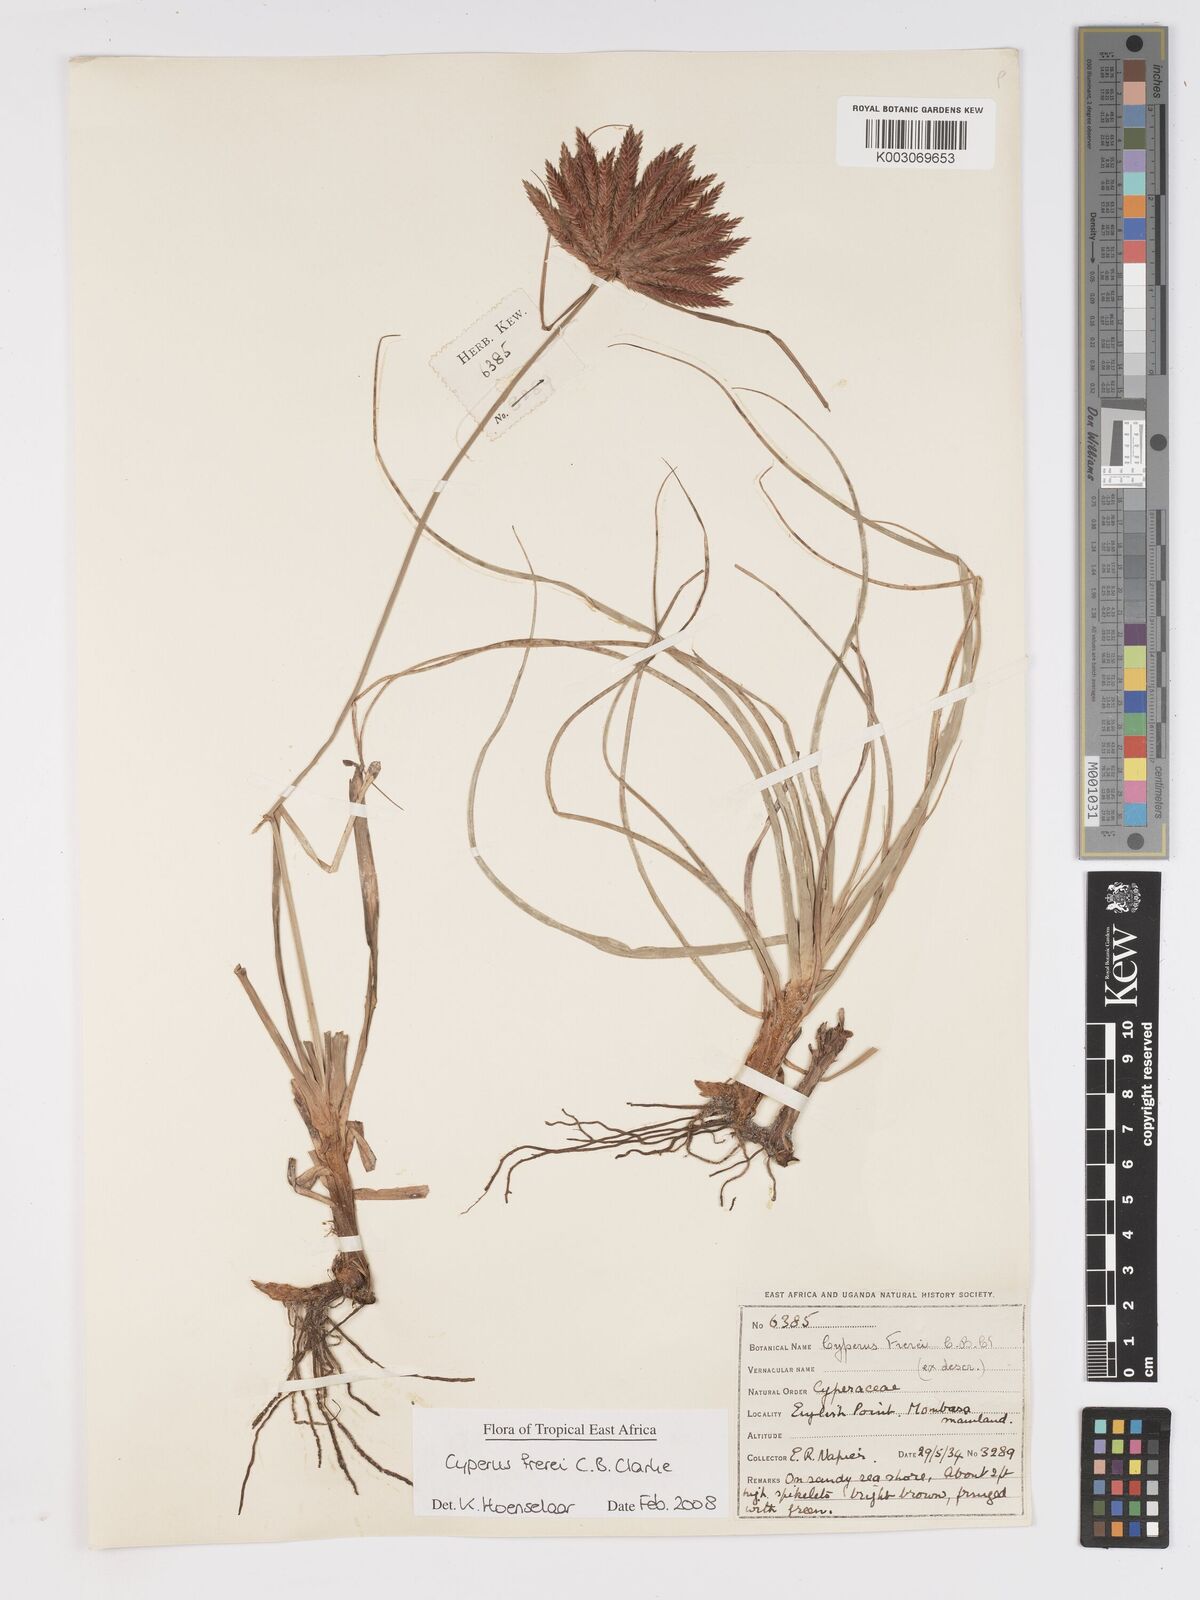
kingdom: Plantae
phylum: Tracheophyta
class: Liliopsida
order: Poales
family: Cyperaceae
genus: Cyperus
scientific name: Cyperus crassipes
